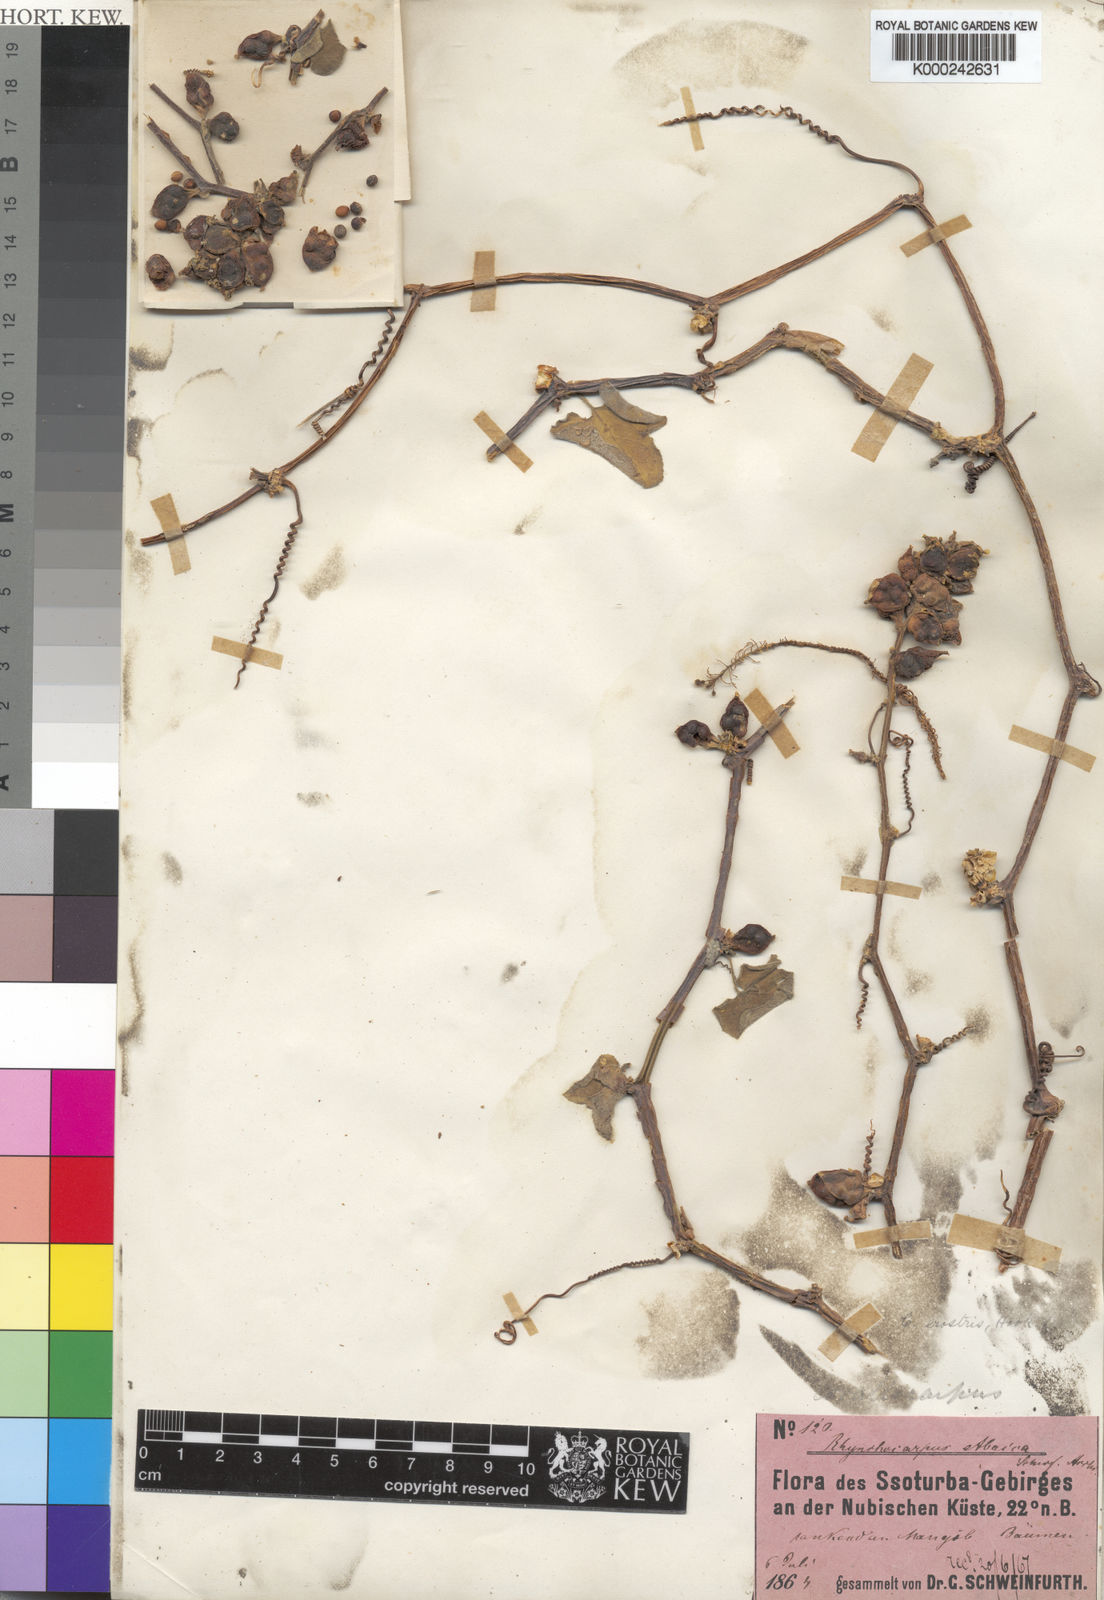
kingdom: Plantae
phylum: Tracheophyta
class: Magnoliopsida
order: Cucurbitales
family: Cucurbitaceae
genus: Corallocarpus
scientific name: Corallocarpus schimperi
